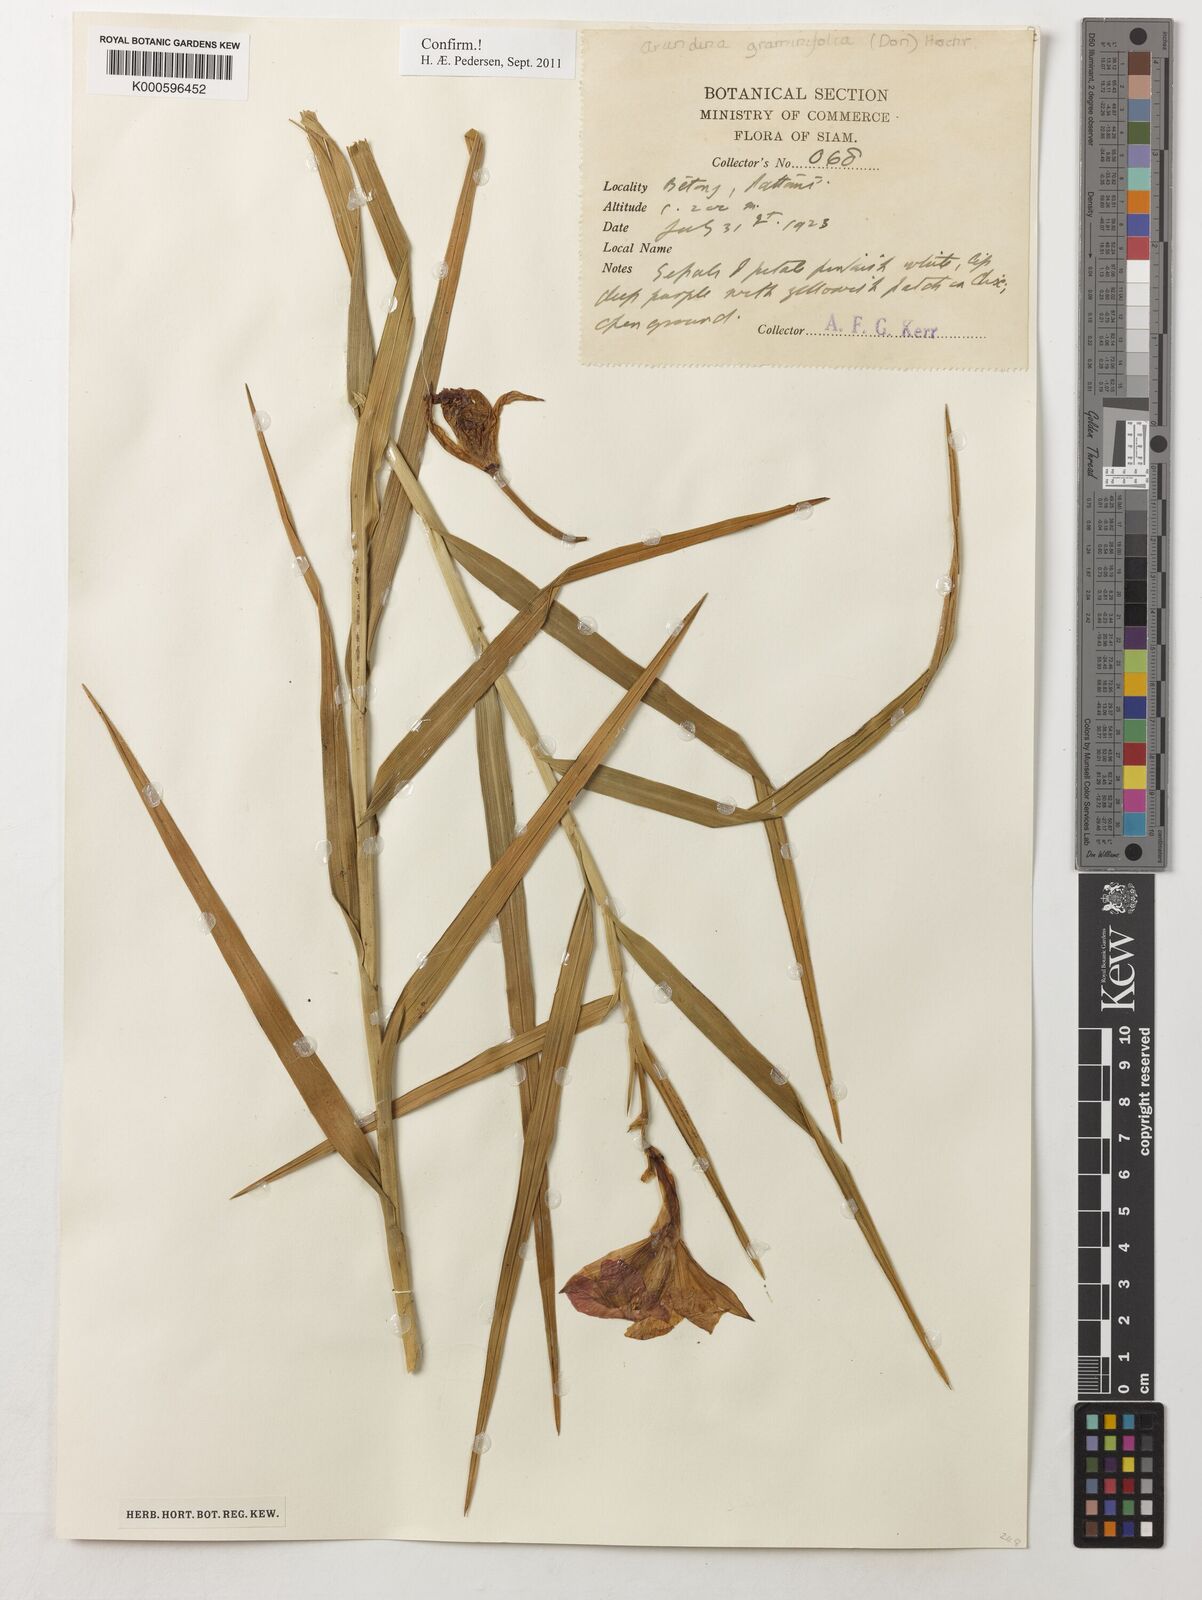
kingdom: Plantae
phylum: Tracheophyta
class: Liliopsida
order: Asparagales
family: Orchidaceae
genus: Arundina
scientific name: Arundina graminifolia
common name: Bamboo orchid
